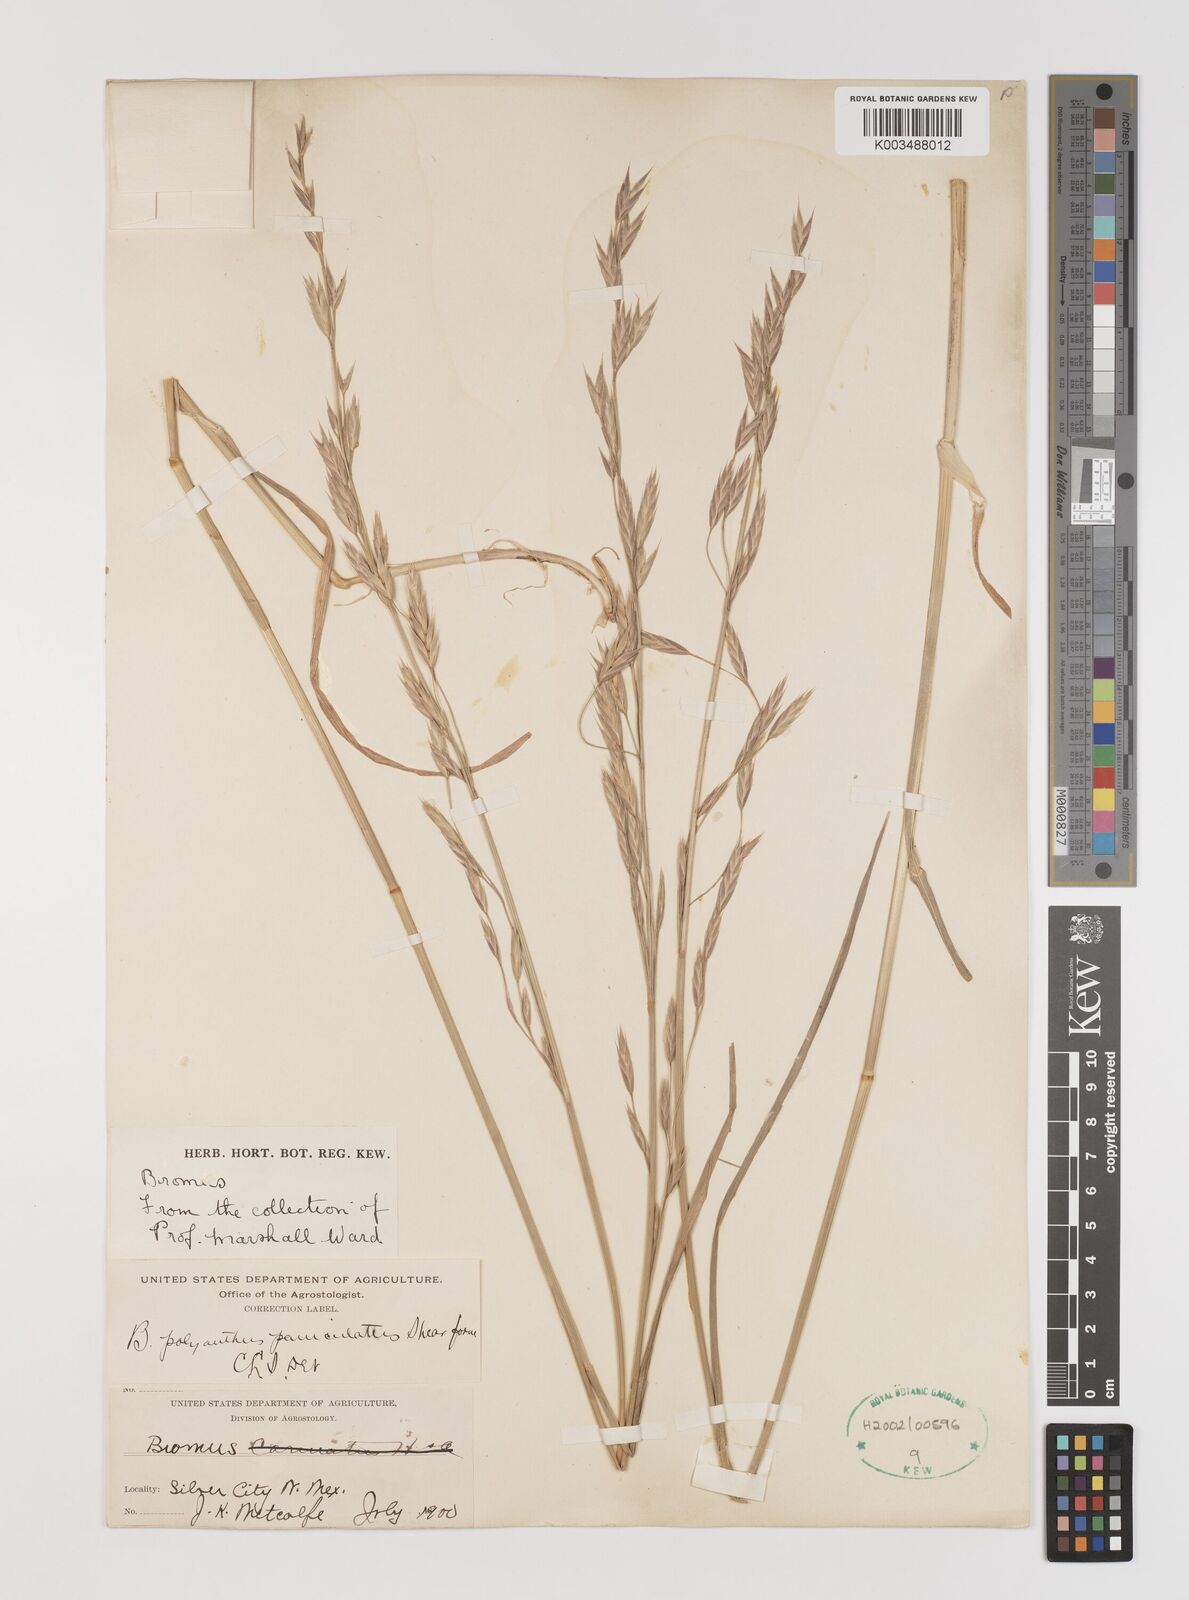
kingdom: Plantae
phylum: Tracheophyta
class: Liliopsida
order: Poales
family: Poaceae
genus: Bromus
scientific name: Bromus polyanthus
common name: Great basin brome
